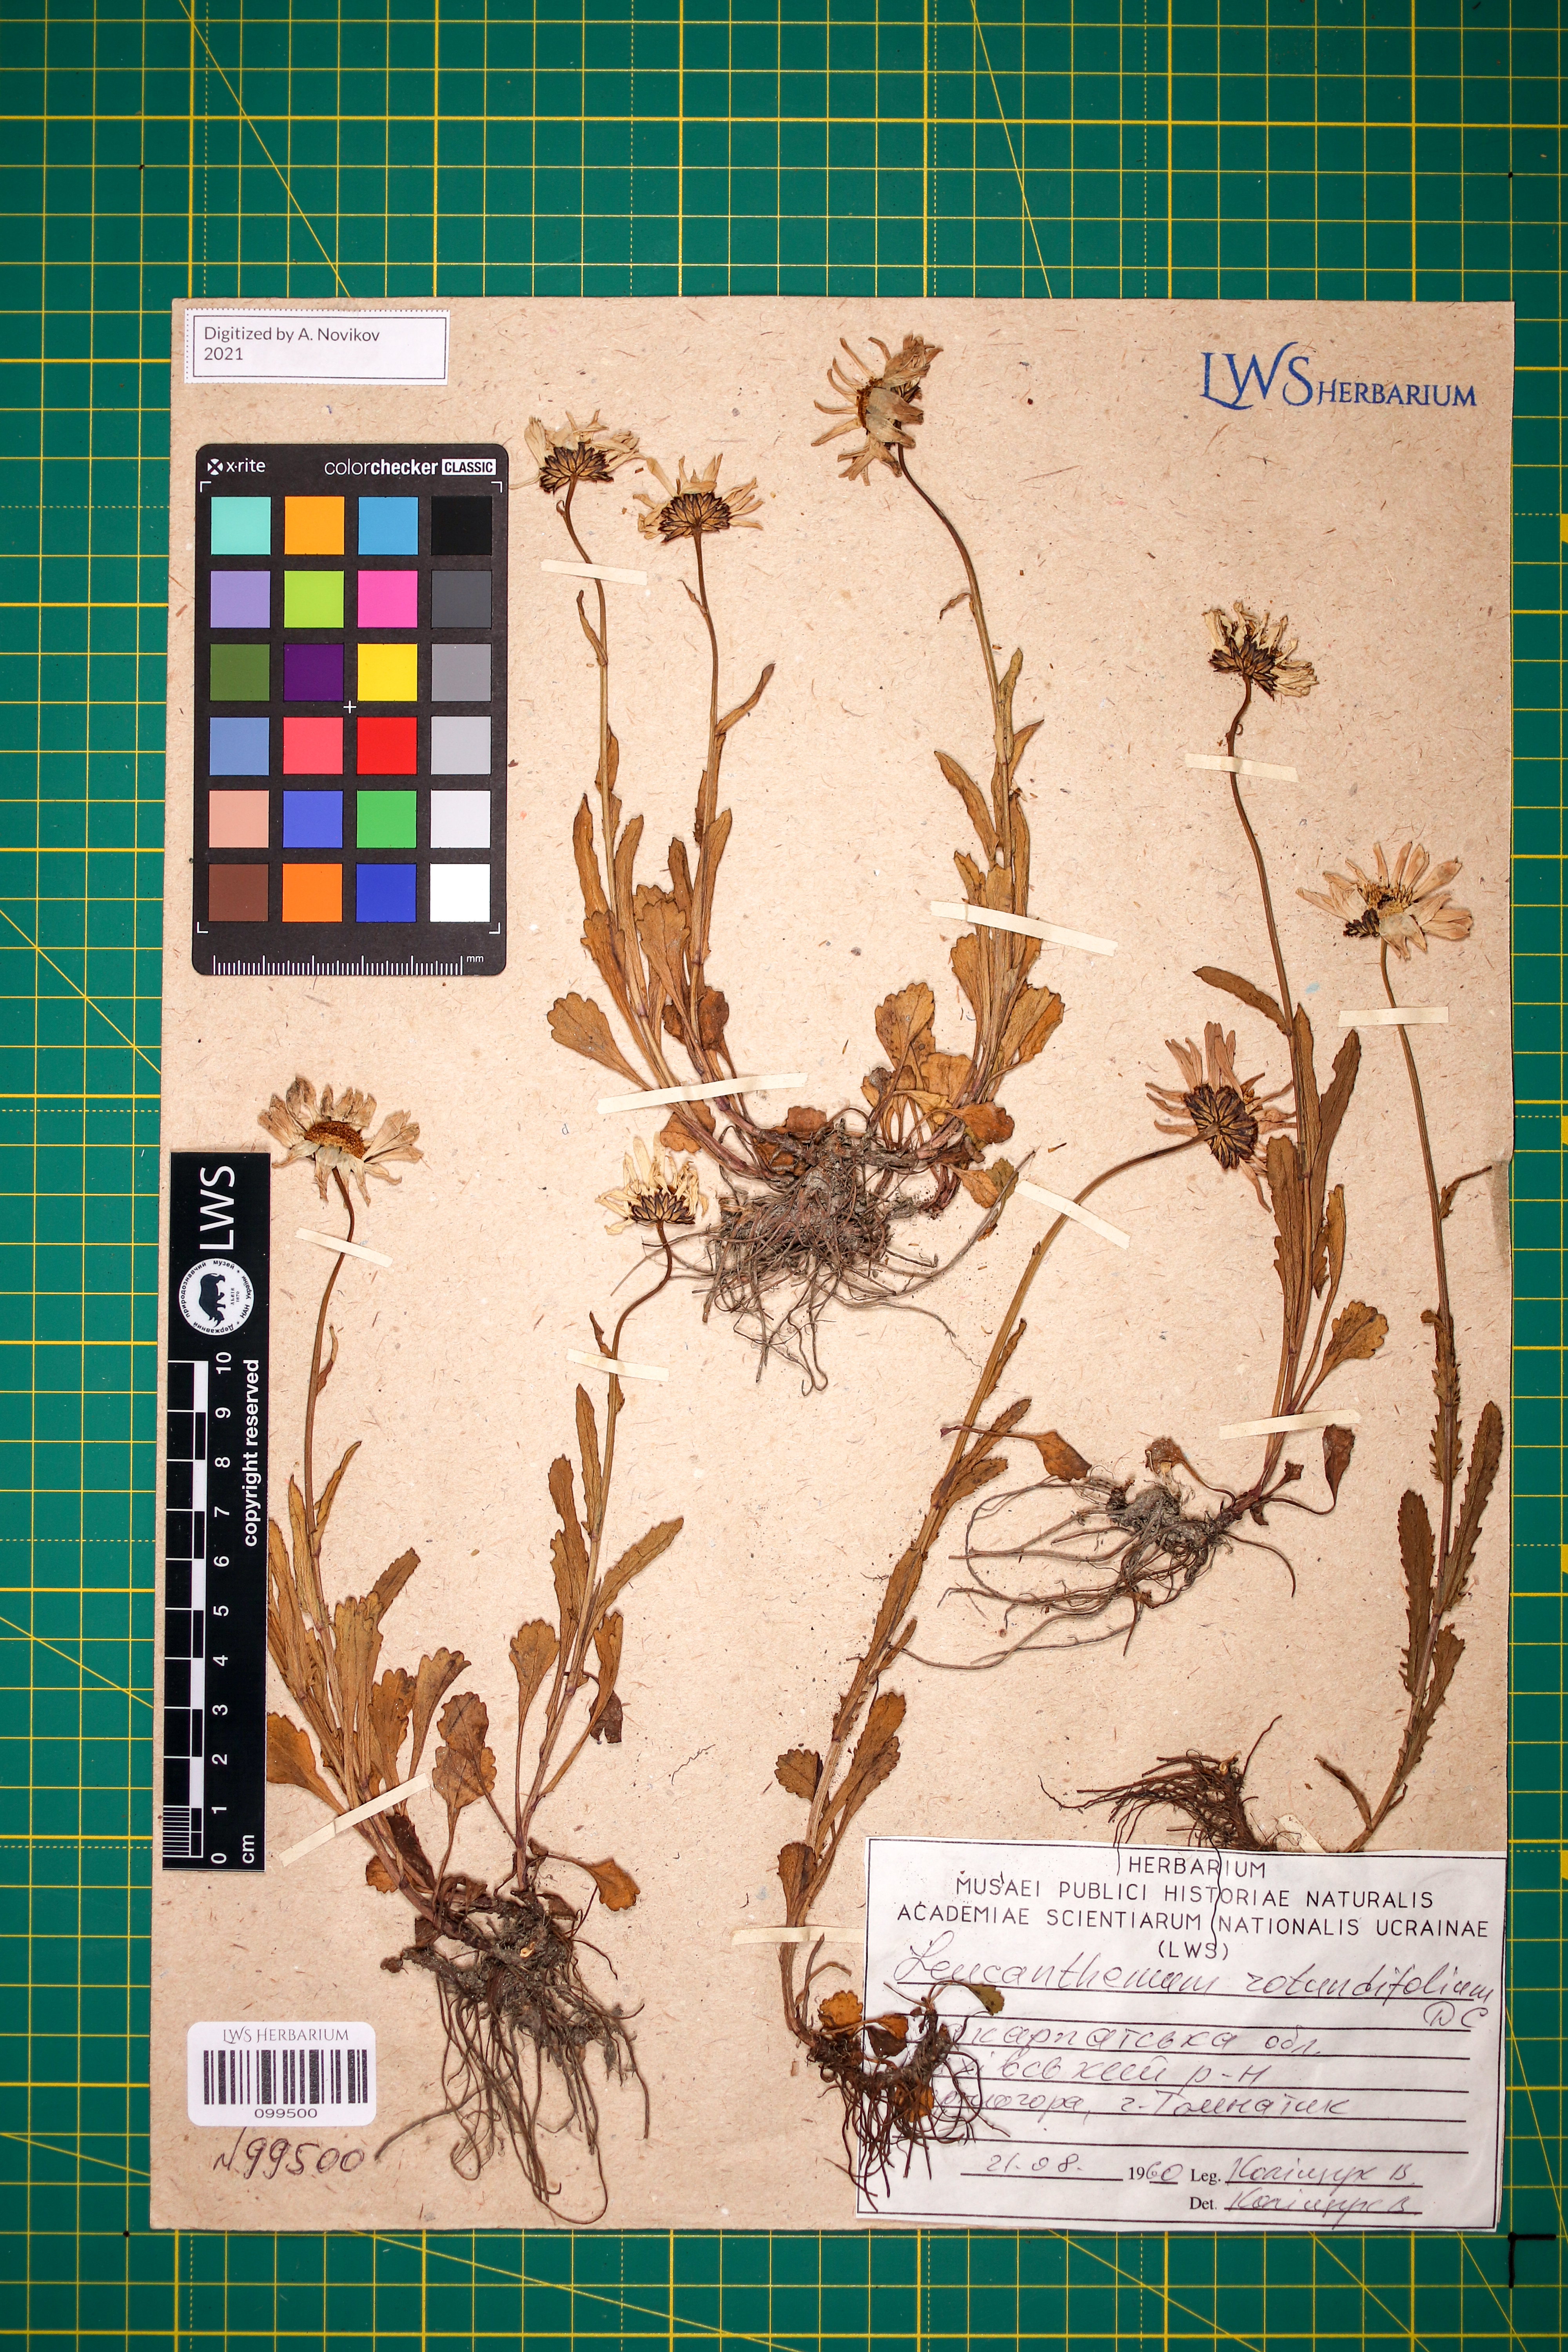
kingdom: Plantae
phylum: Tracheophyta
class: Magnoliopsida
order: Asterales
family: Asteraceae
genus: Leucanthemum
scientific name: Leucanthemum rotundifolium
